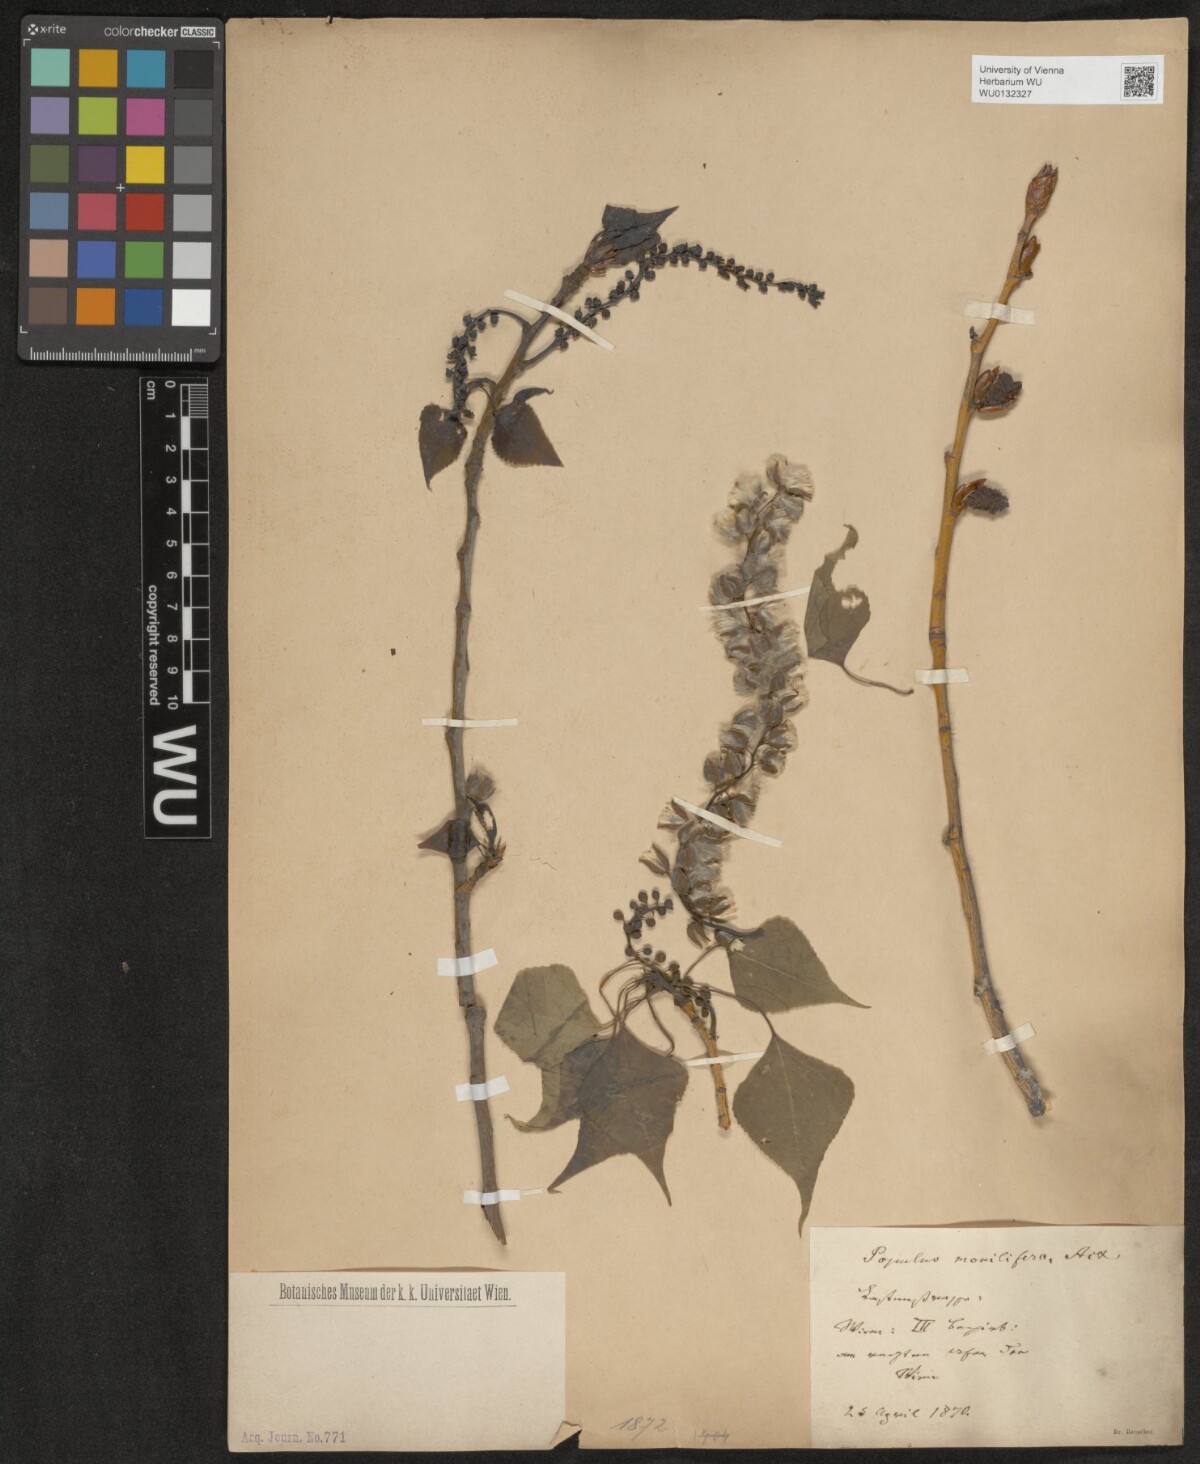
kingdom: Plantae
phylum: Tracheophyta
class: Magnoliopsida
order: Malpighiales
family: Salicaceae
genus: Populus
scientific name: Populus deltoides
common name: Eastern cottonwood
